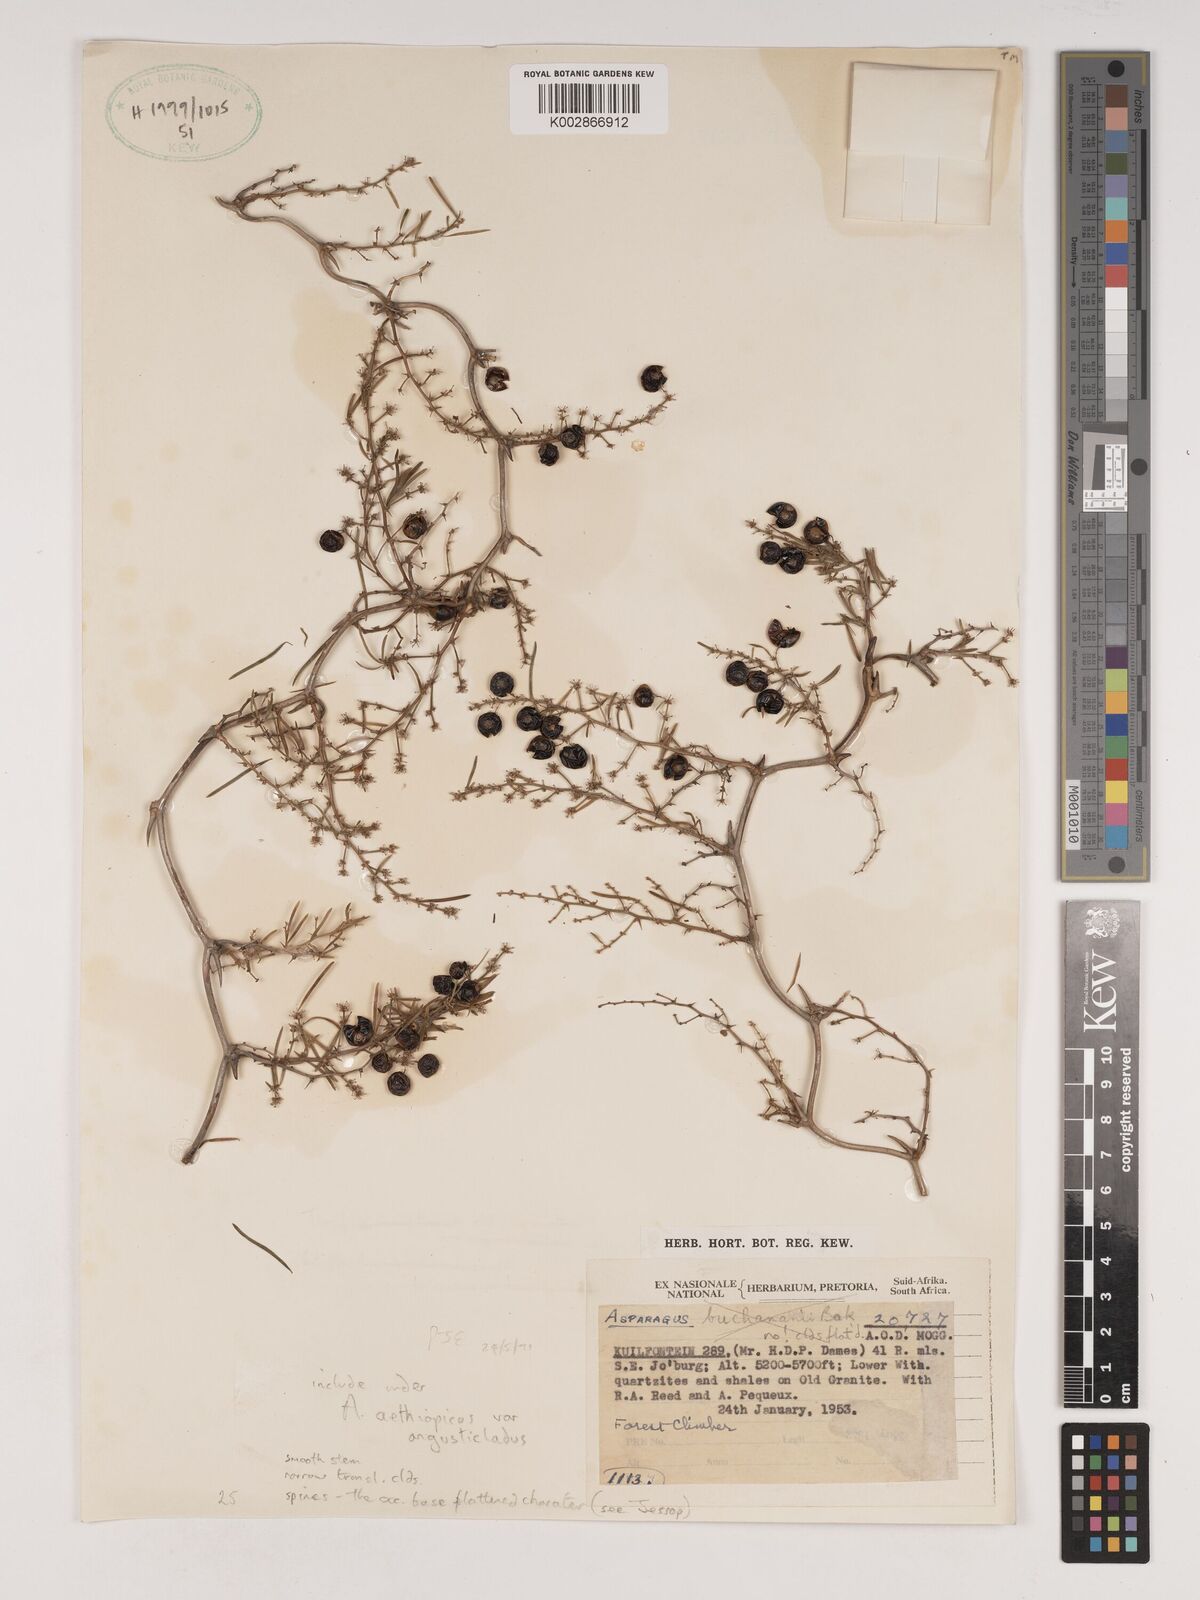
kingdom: Plantae
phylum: Tracheophyta
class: Liliopsida
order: Asparagales
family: Asparagaceae
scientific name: Asparagaceae
